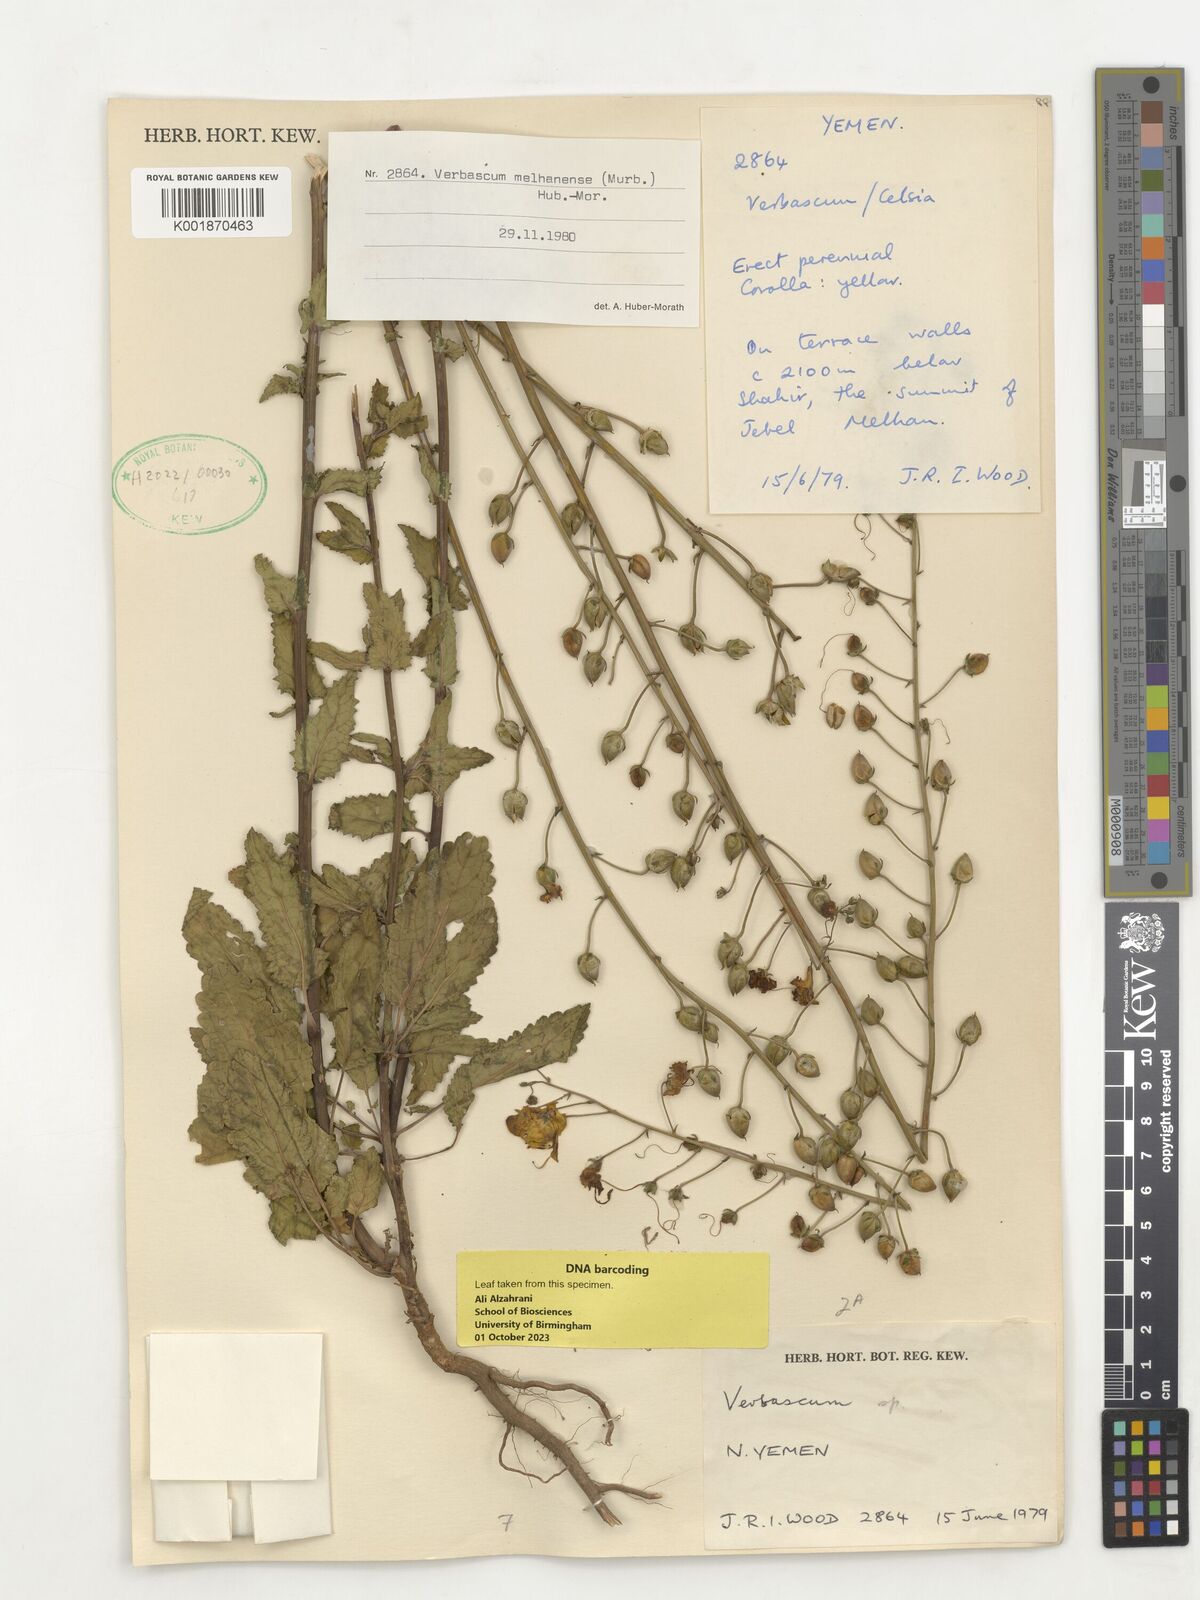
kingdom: Plantae
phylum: Tracheophyta
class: Magnoliopsida
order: Lamiales
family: Scrophulariaceae
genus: Verbascum
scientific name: Verbascum melhanense
